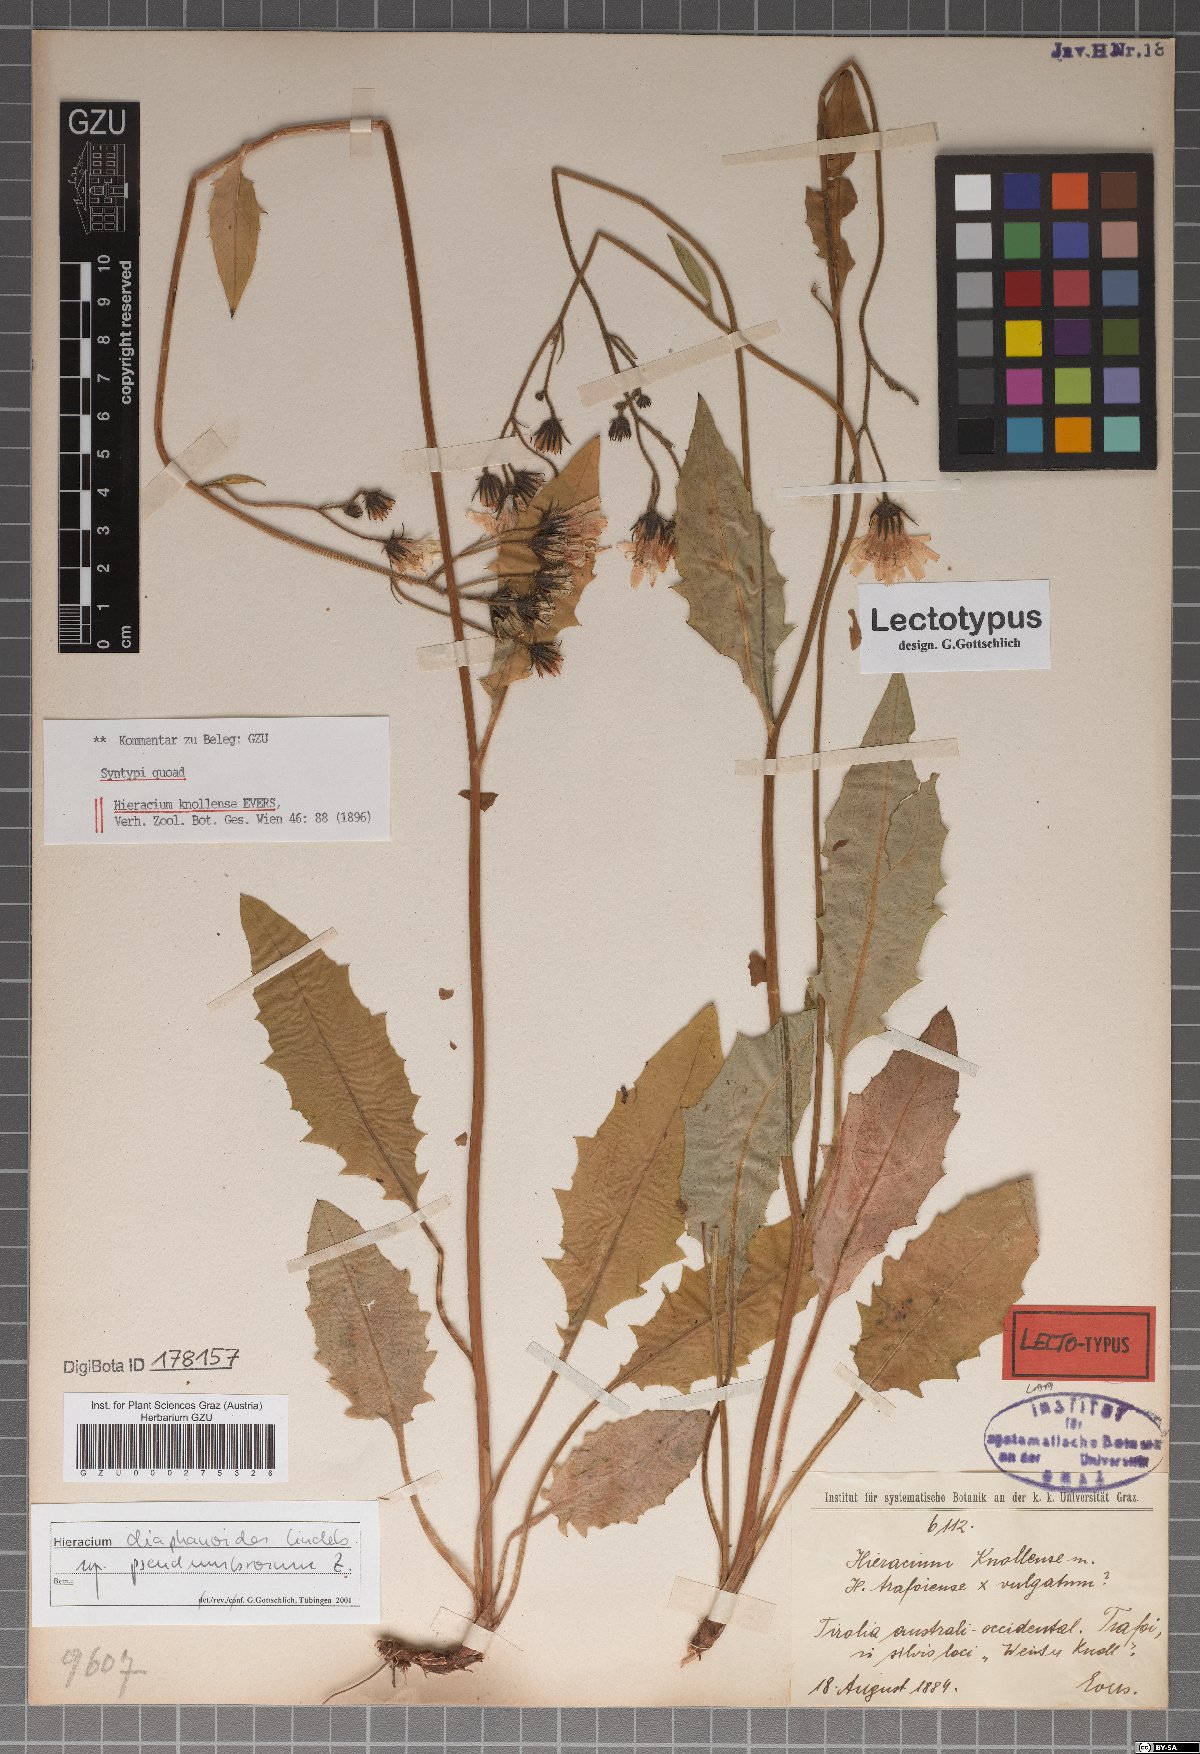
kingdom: Plantae
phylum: Tracheophyta
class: Magnoliopsida
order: Asterales
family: Asteraceae
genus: Hieracium
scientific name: Hieracium knollense
